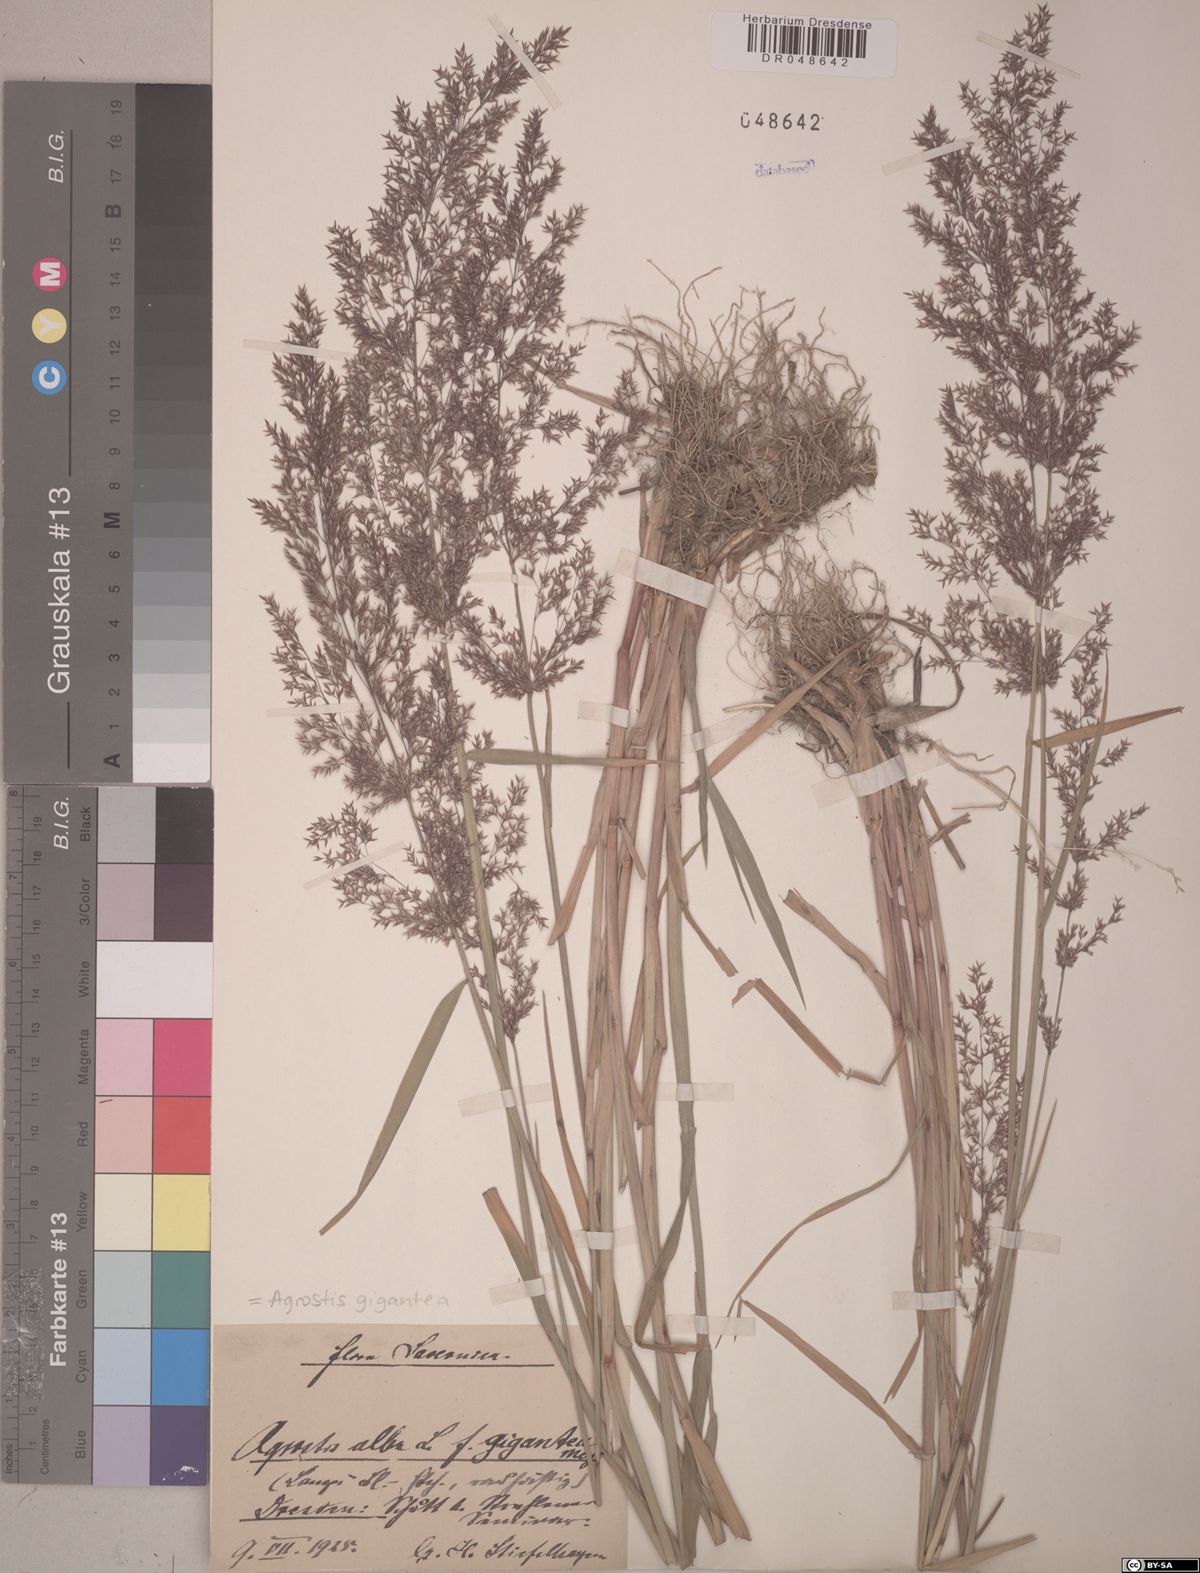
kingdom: Plantae
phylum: Tracheophyta
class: Liliopsida
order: Poales
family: Poaceae
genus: Agrostis
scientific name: Agrostis gigantea
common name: Black bent
